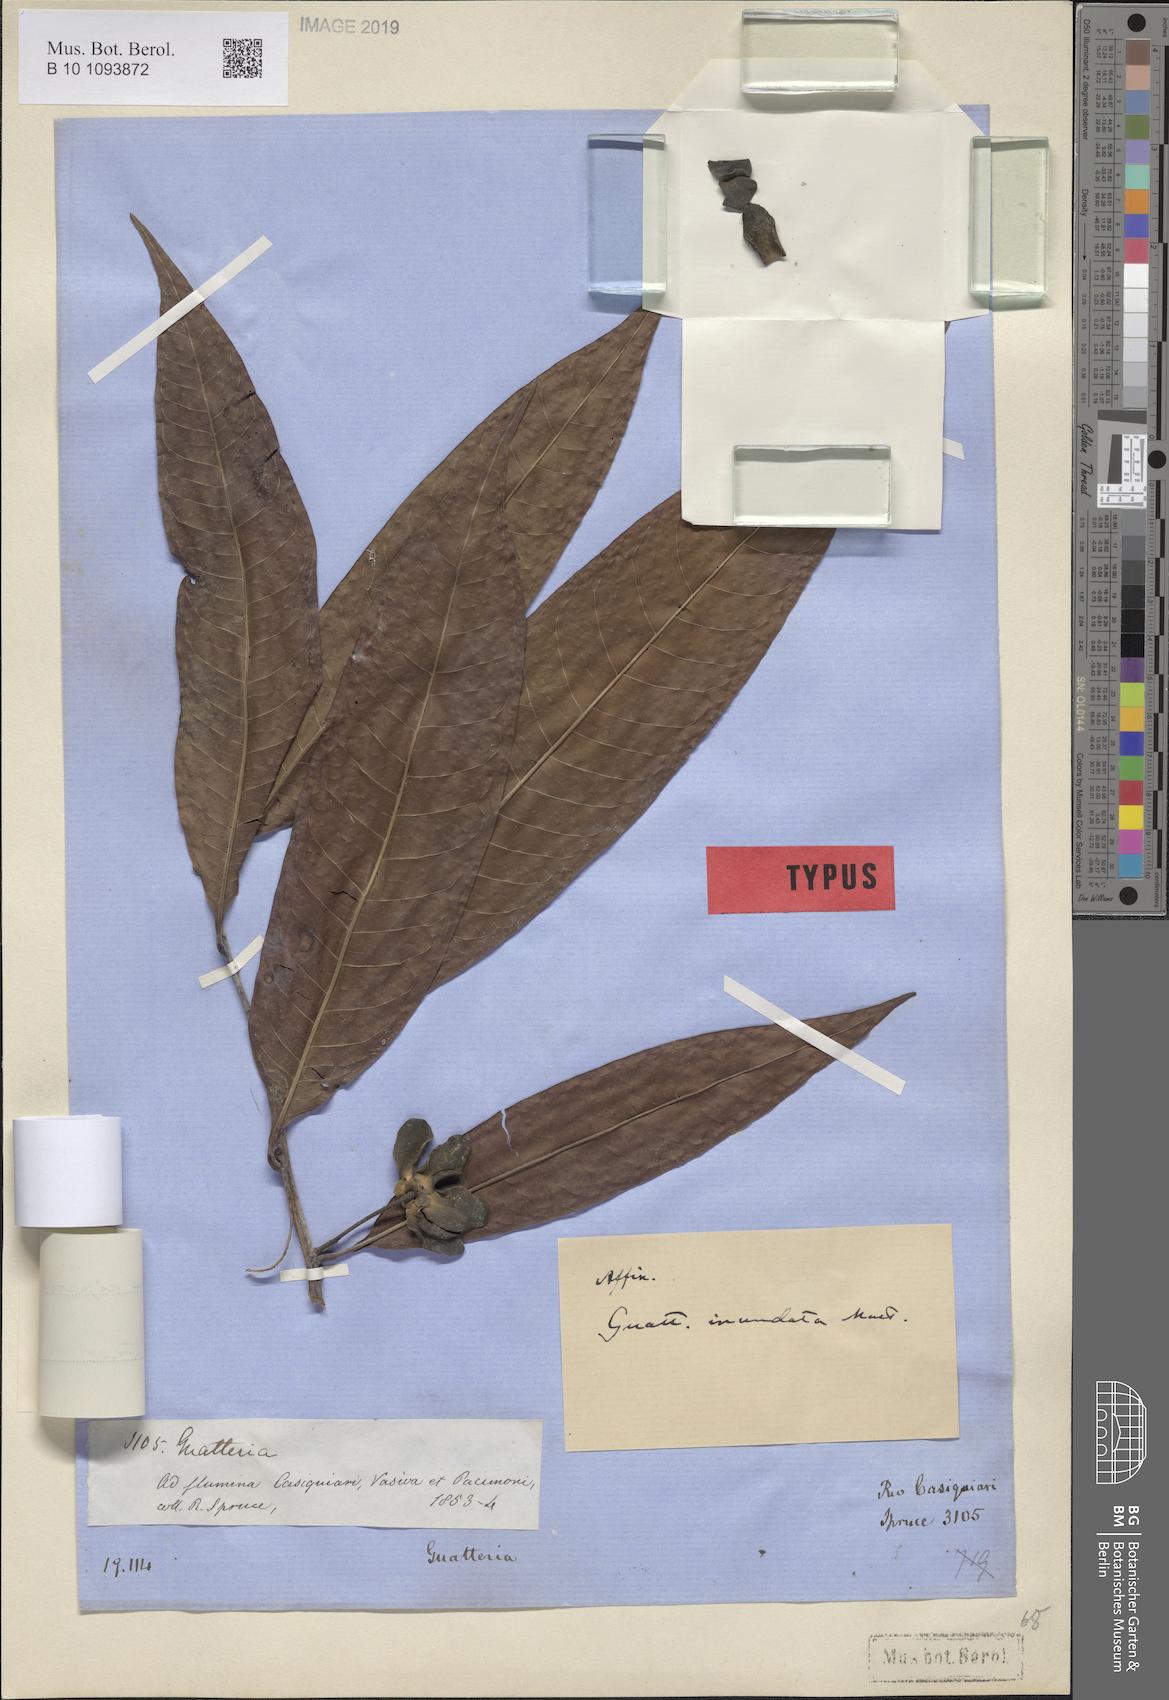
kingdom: Plantae
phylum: Tracheophyta
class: Magnoliopsida
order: Magnoliales
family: Annonaceae
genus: Guatteria
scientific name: Guatteria inundata
